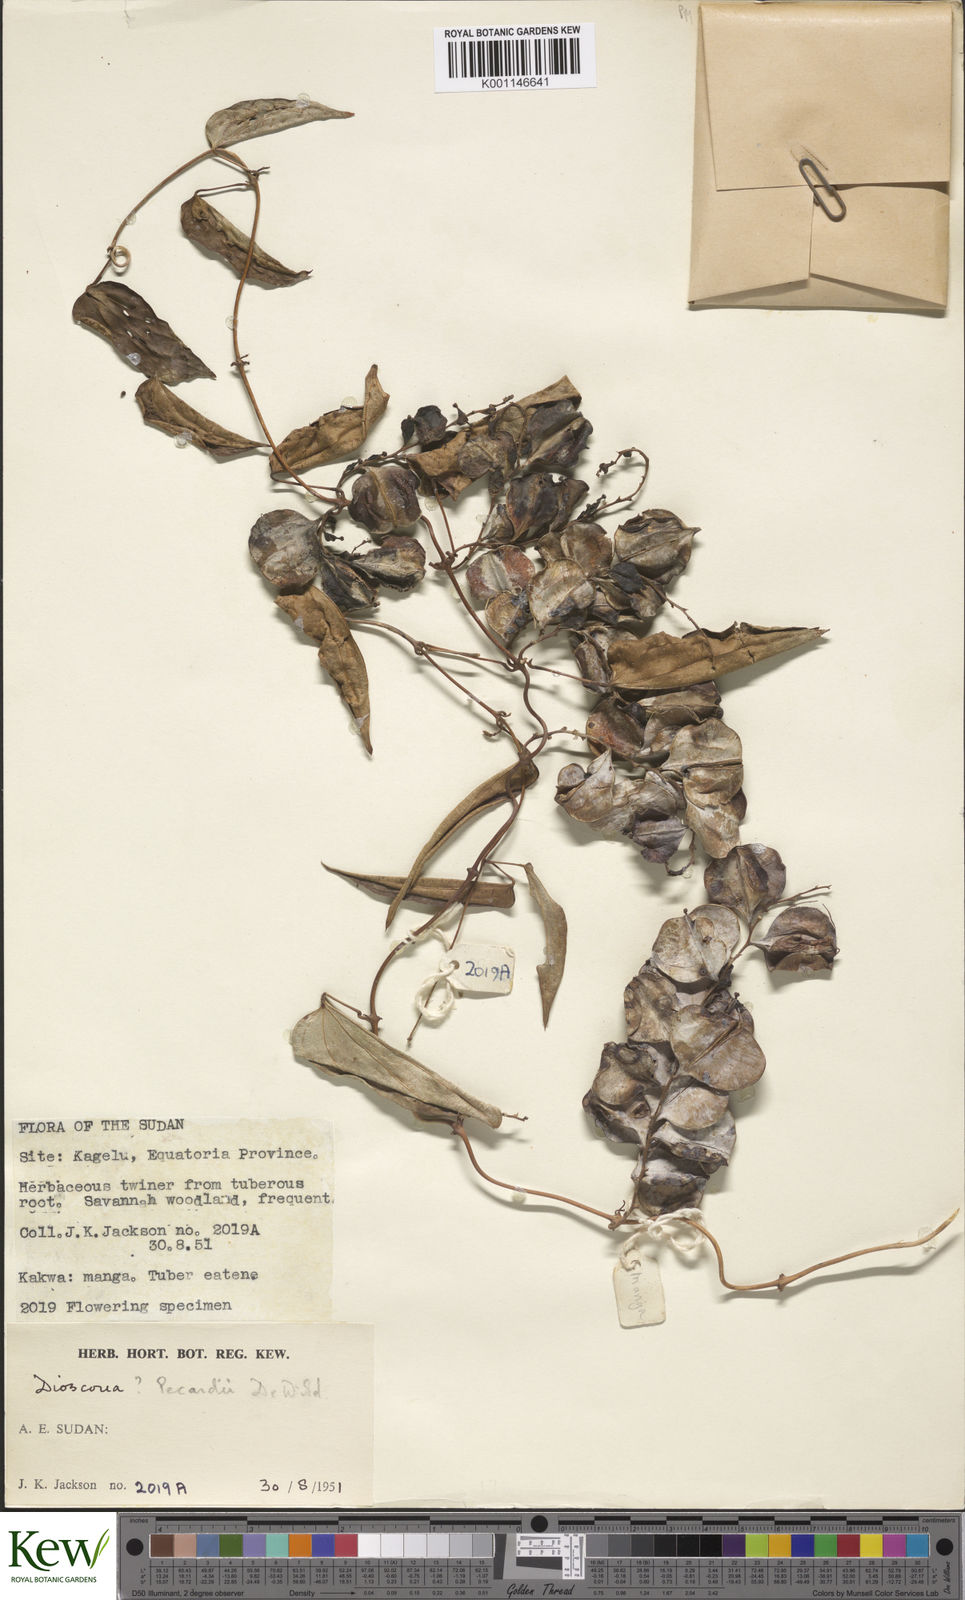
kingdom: Plantae
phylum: Tracheophyta
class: Liliopsida
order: Dioscoreales
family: Dioscoreaceae
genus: Dioscorea
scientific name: Dioscorea sagittifolia
